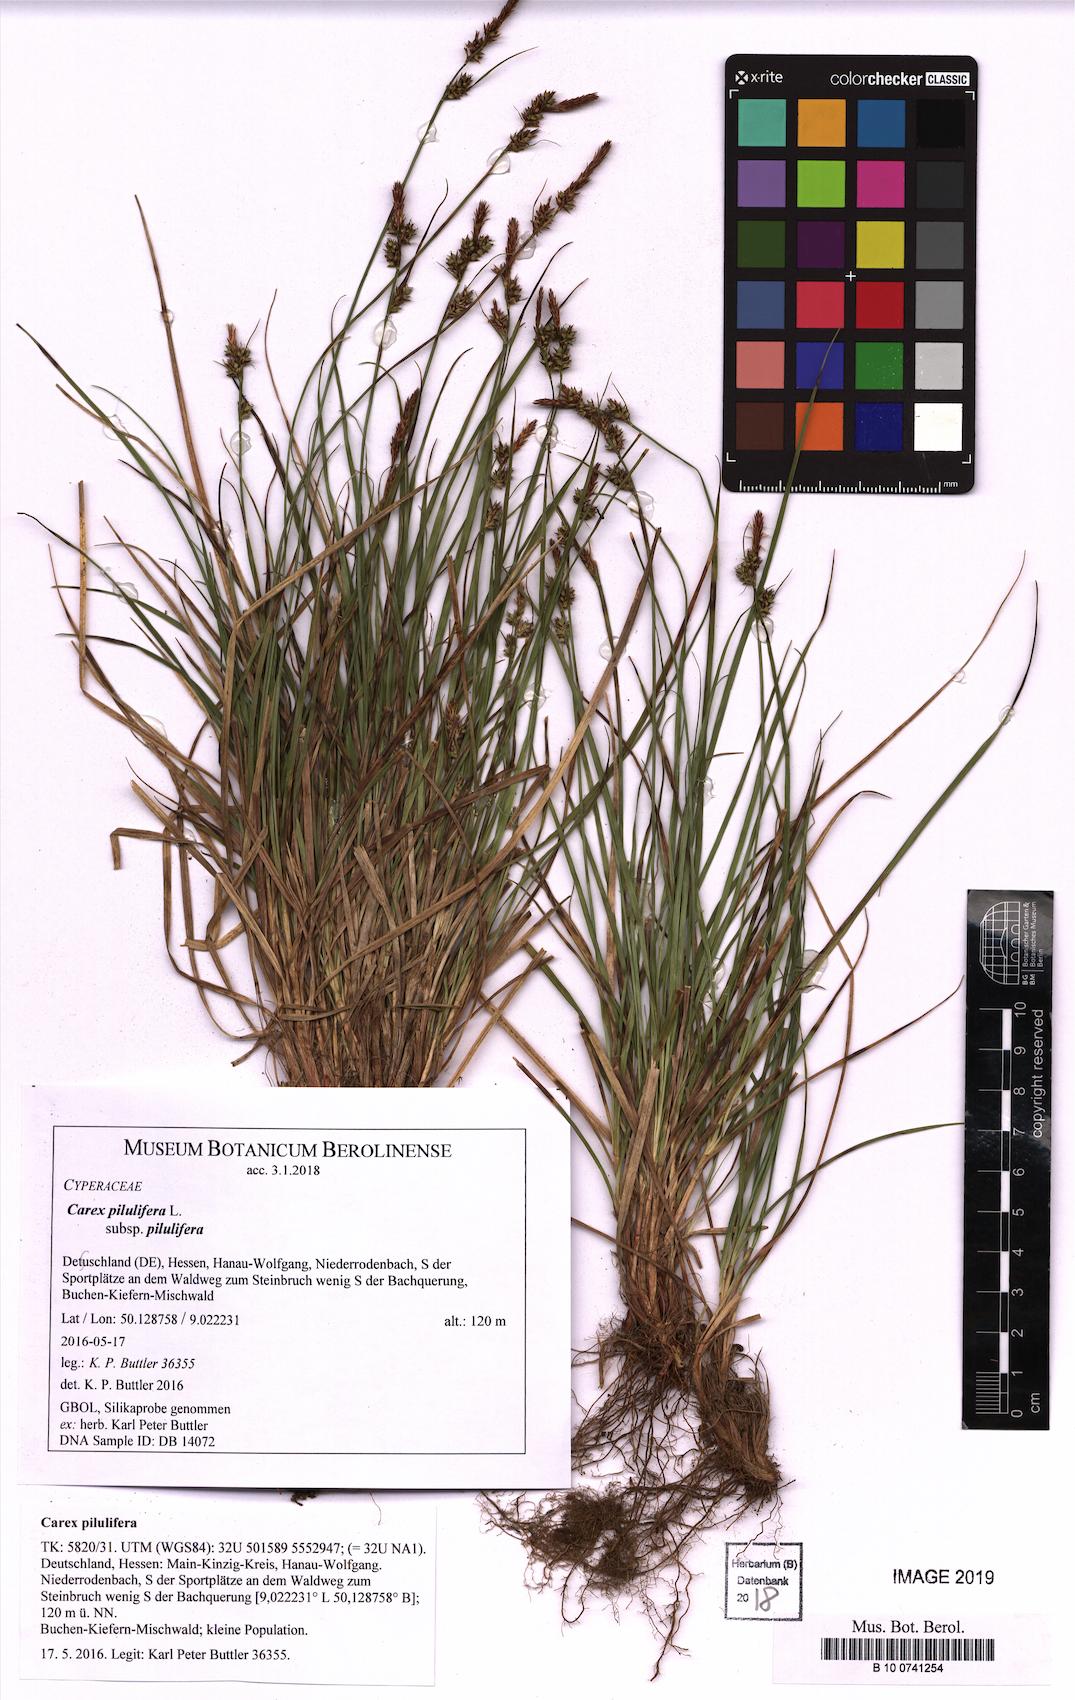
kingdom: Plantae
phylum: Tracheophyta
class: Liliopsida
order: Poales
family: Cyperaceae
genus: Carex
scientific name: Carex pilulifera
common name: Pill sedge
